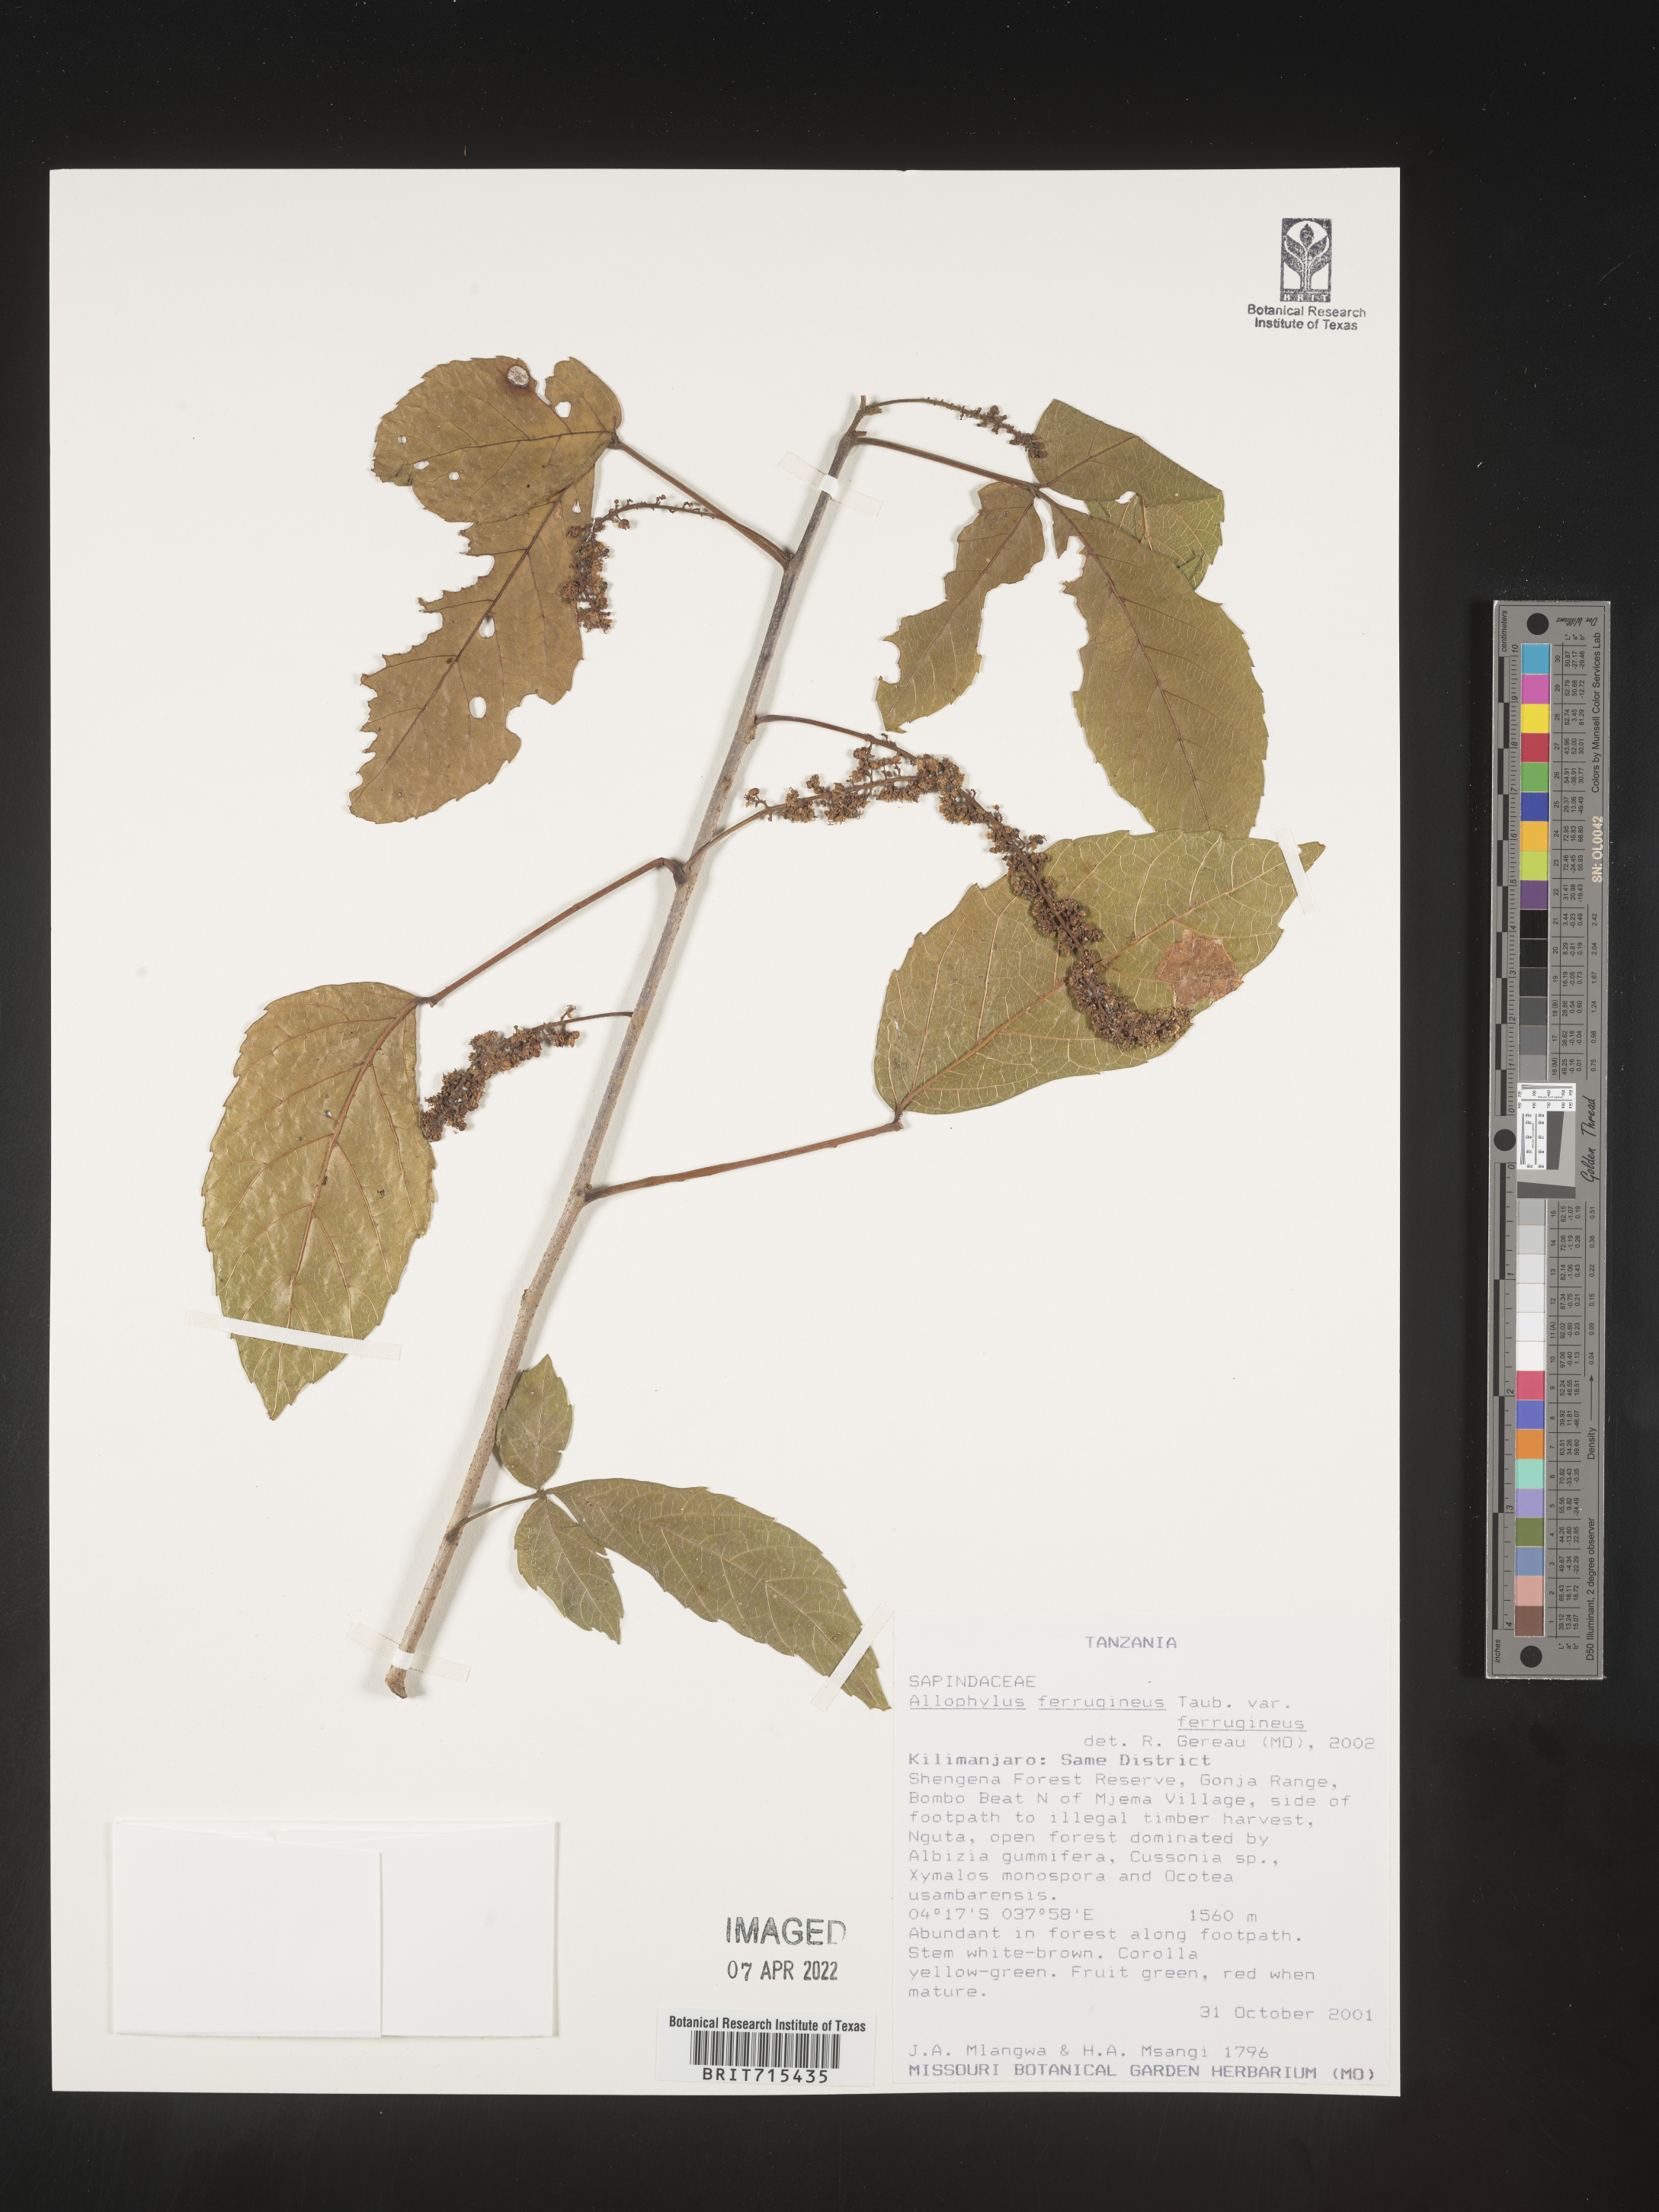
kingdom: Plantae
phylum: Tracheophyta
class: Magnoliopsida
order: Sapindales
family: Sapindaceae
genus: Allophylus
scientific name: Allophylus ferrugineus
